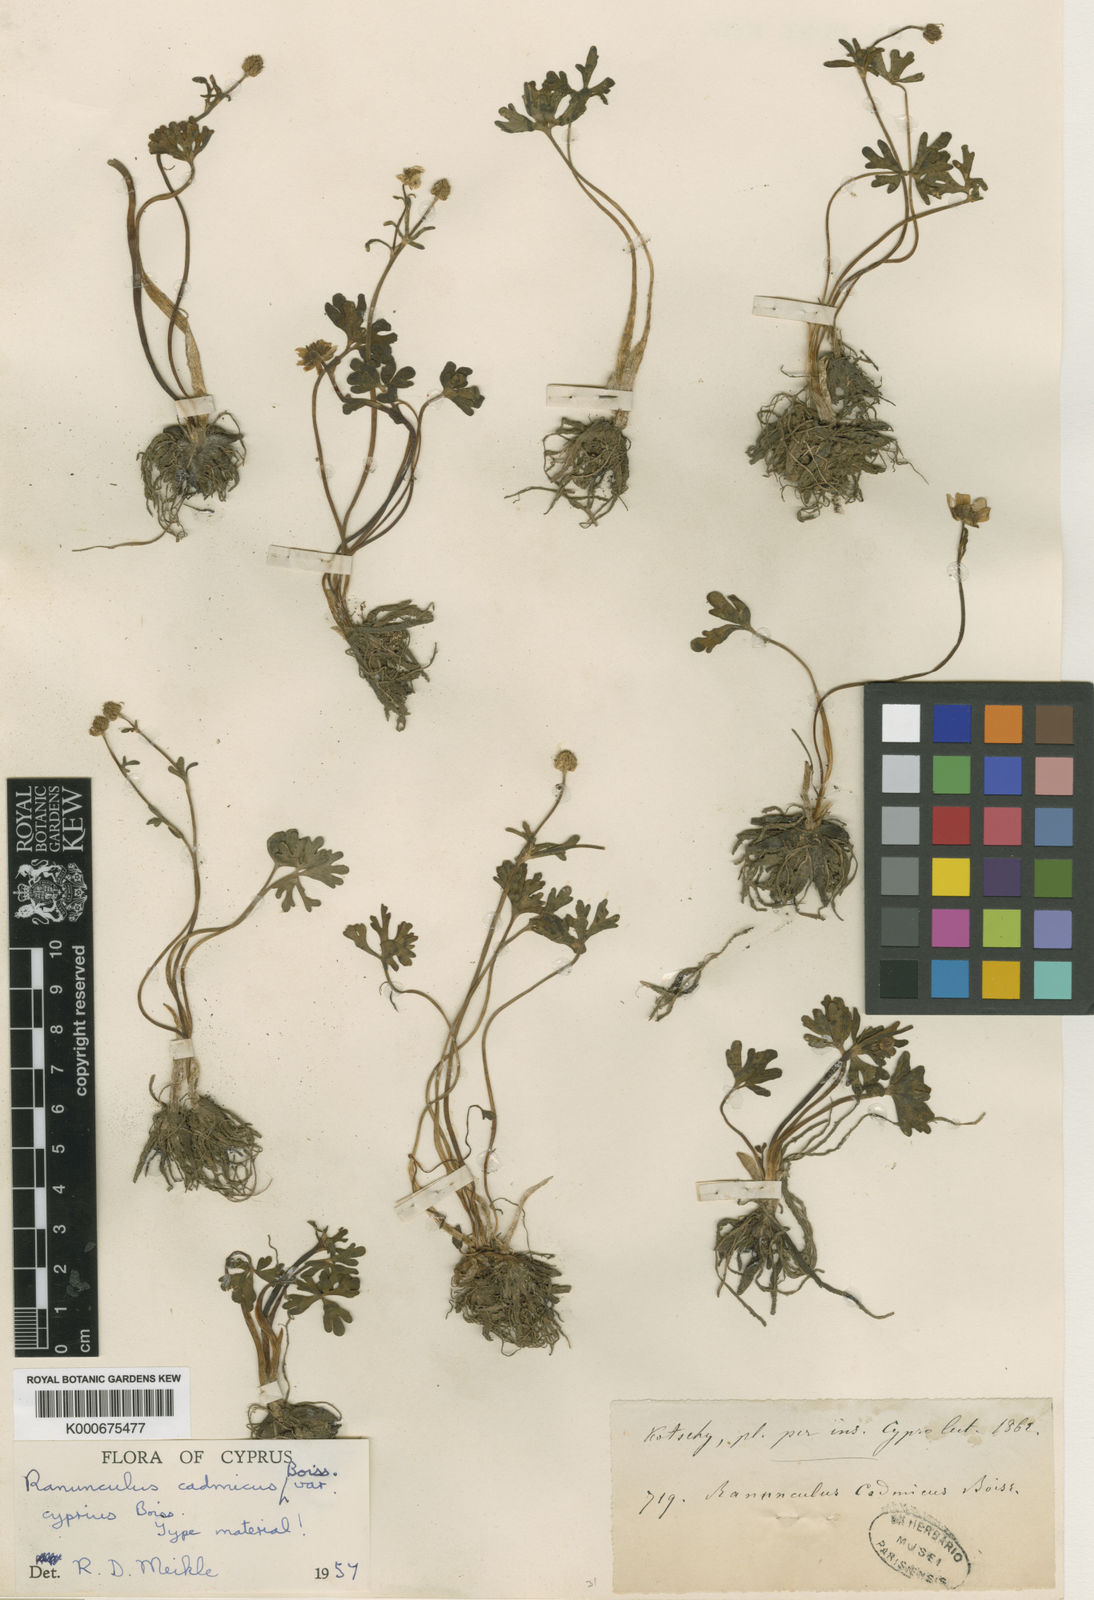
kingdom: Plantae
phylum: Tracheophyta
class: Magnoliopsida
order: Ranunculales
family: Ranunculaceae
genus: Ranunculus
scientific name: Ranunculus cadmicus
